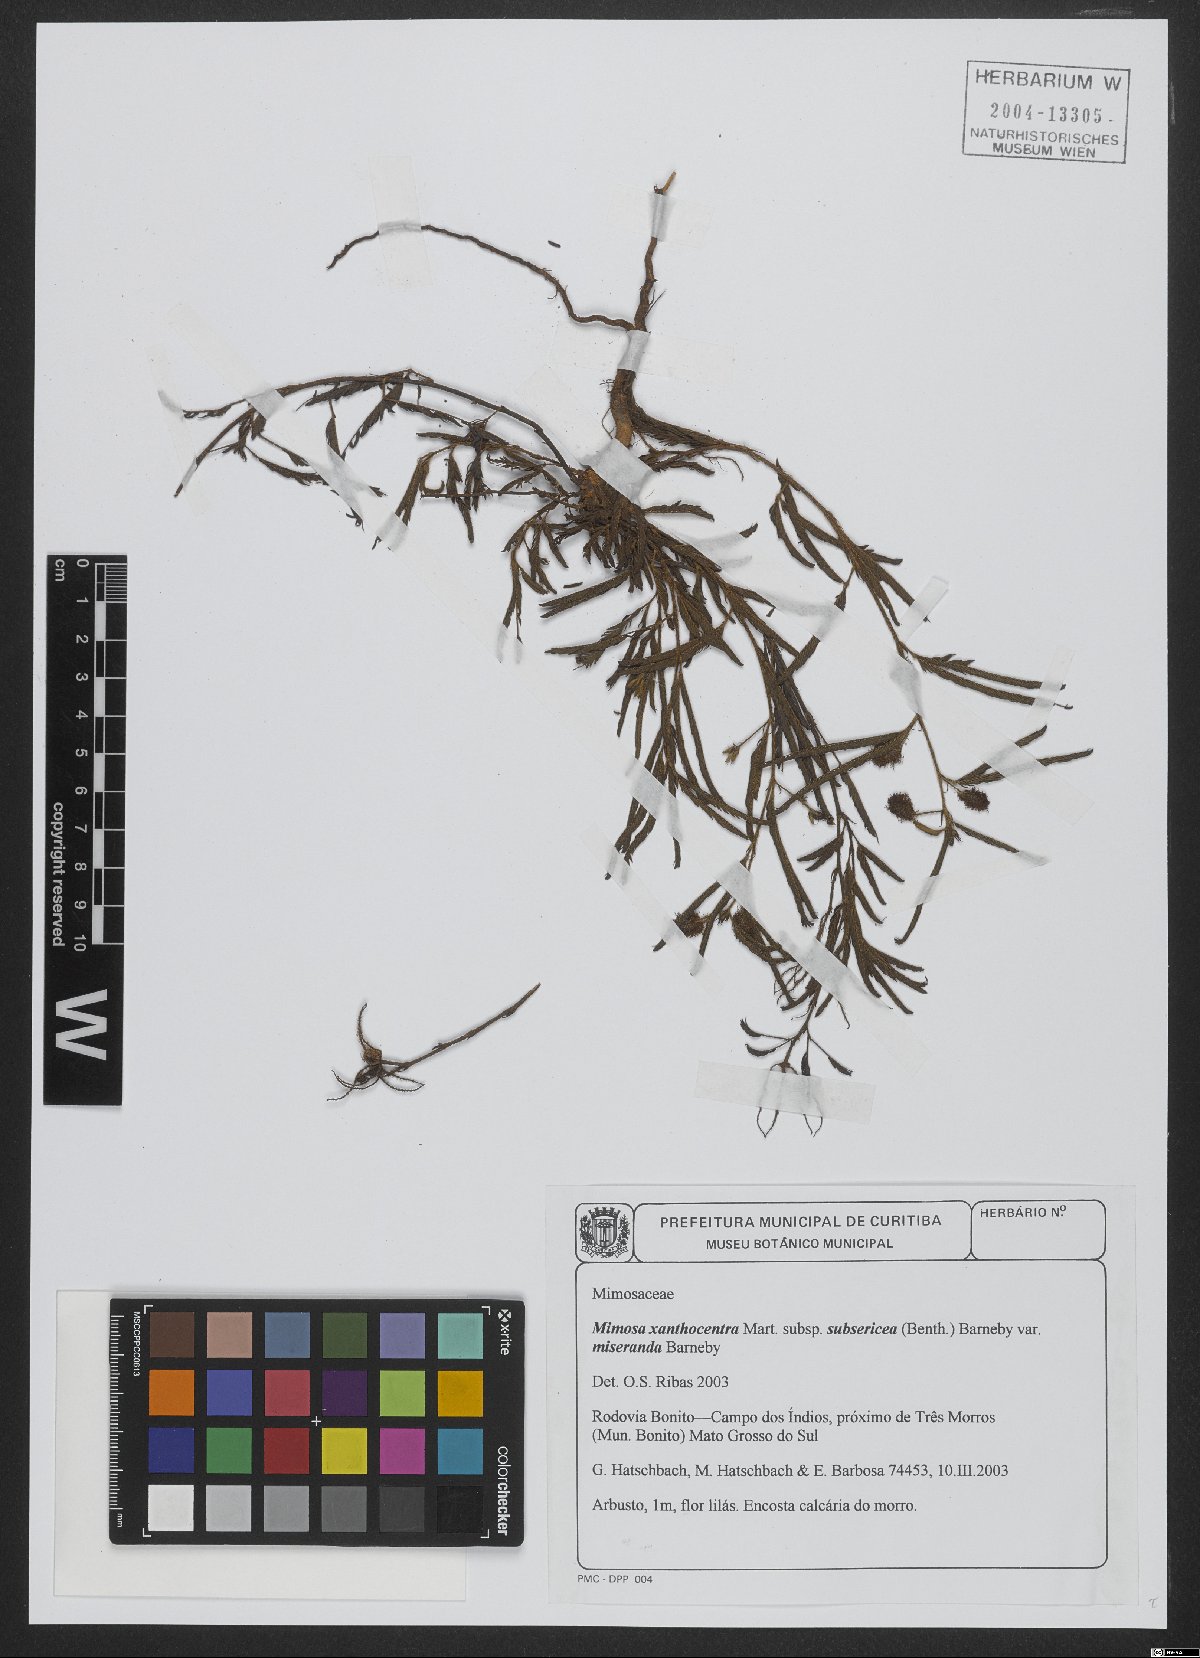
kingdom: Plantae
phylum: Tracheophyta
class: Magnoliopsida
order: Fabales
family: Fabaceae
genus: Mimosa
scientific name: Mimosa xanthocentra
